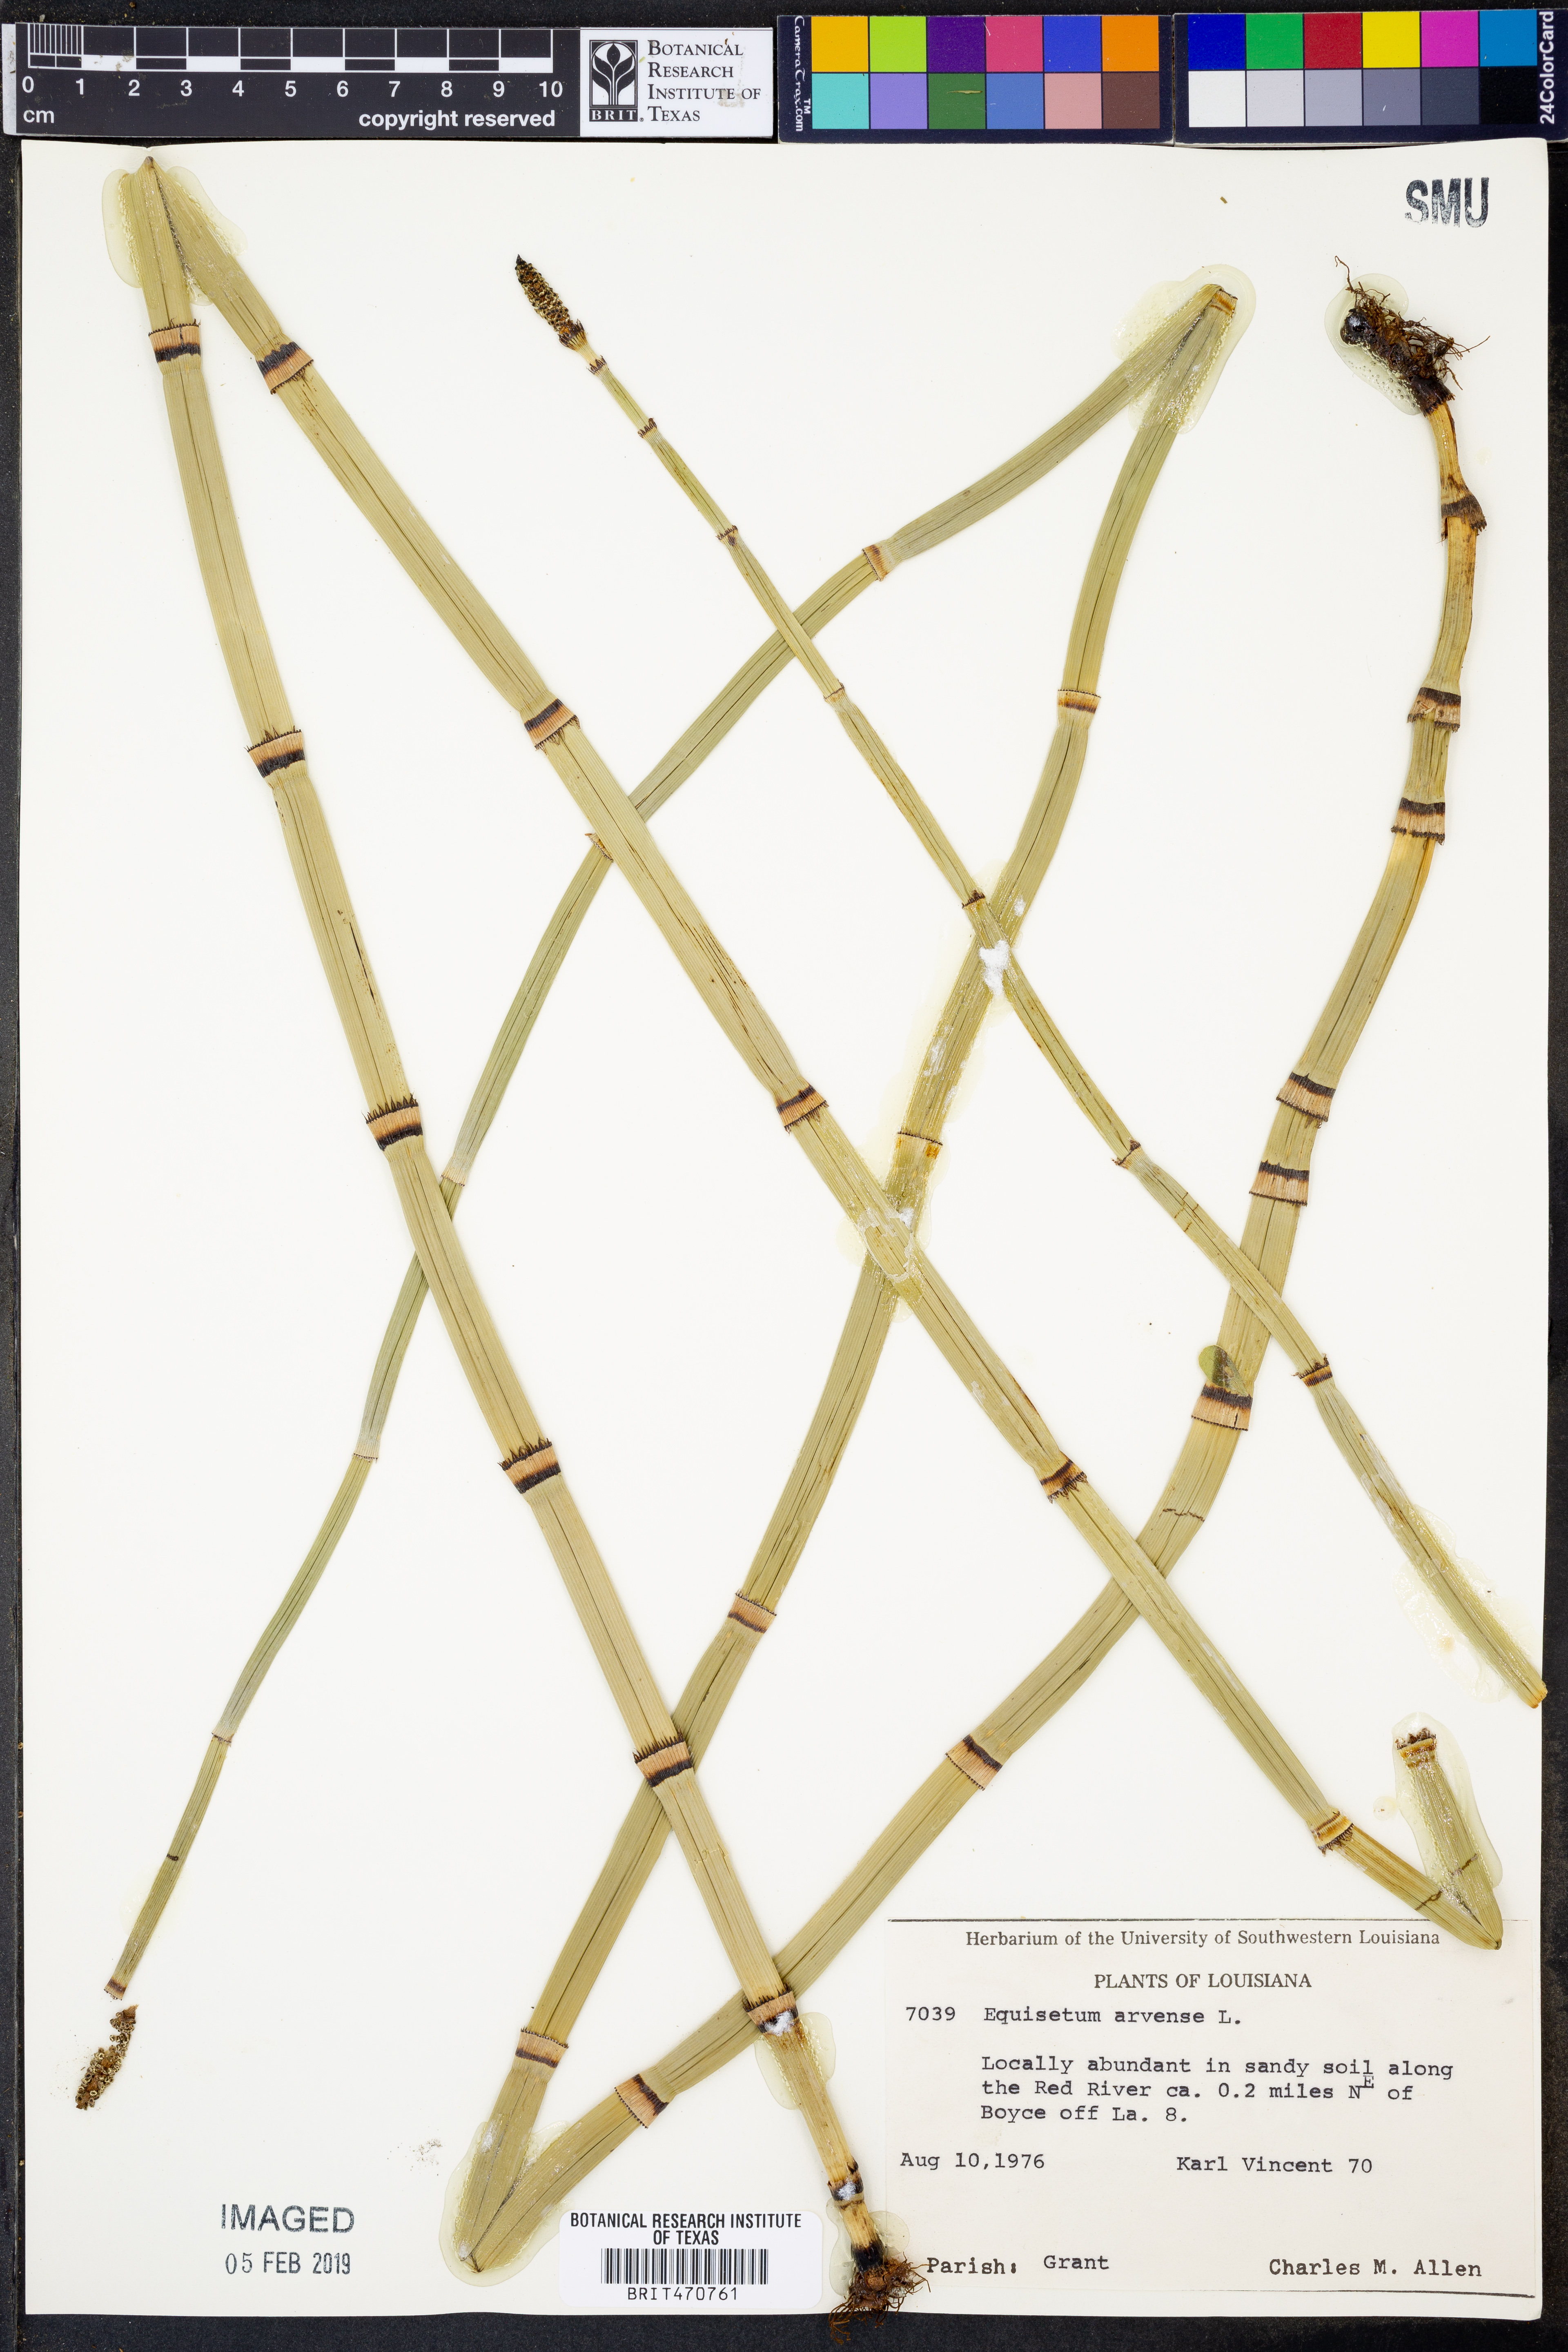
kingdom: Plantae
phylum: Tracheophyta
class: Polypodiopsida
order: Equisetales
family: Equisetaceae
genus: Equisetum
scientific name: Equisetum arvense
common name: Field horsetail
